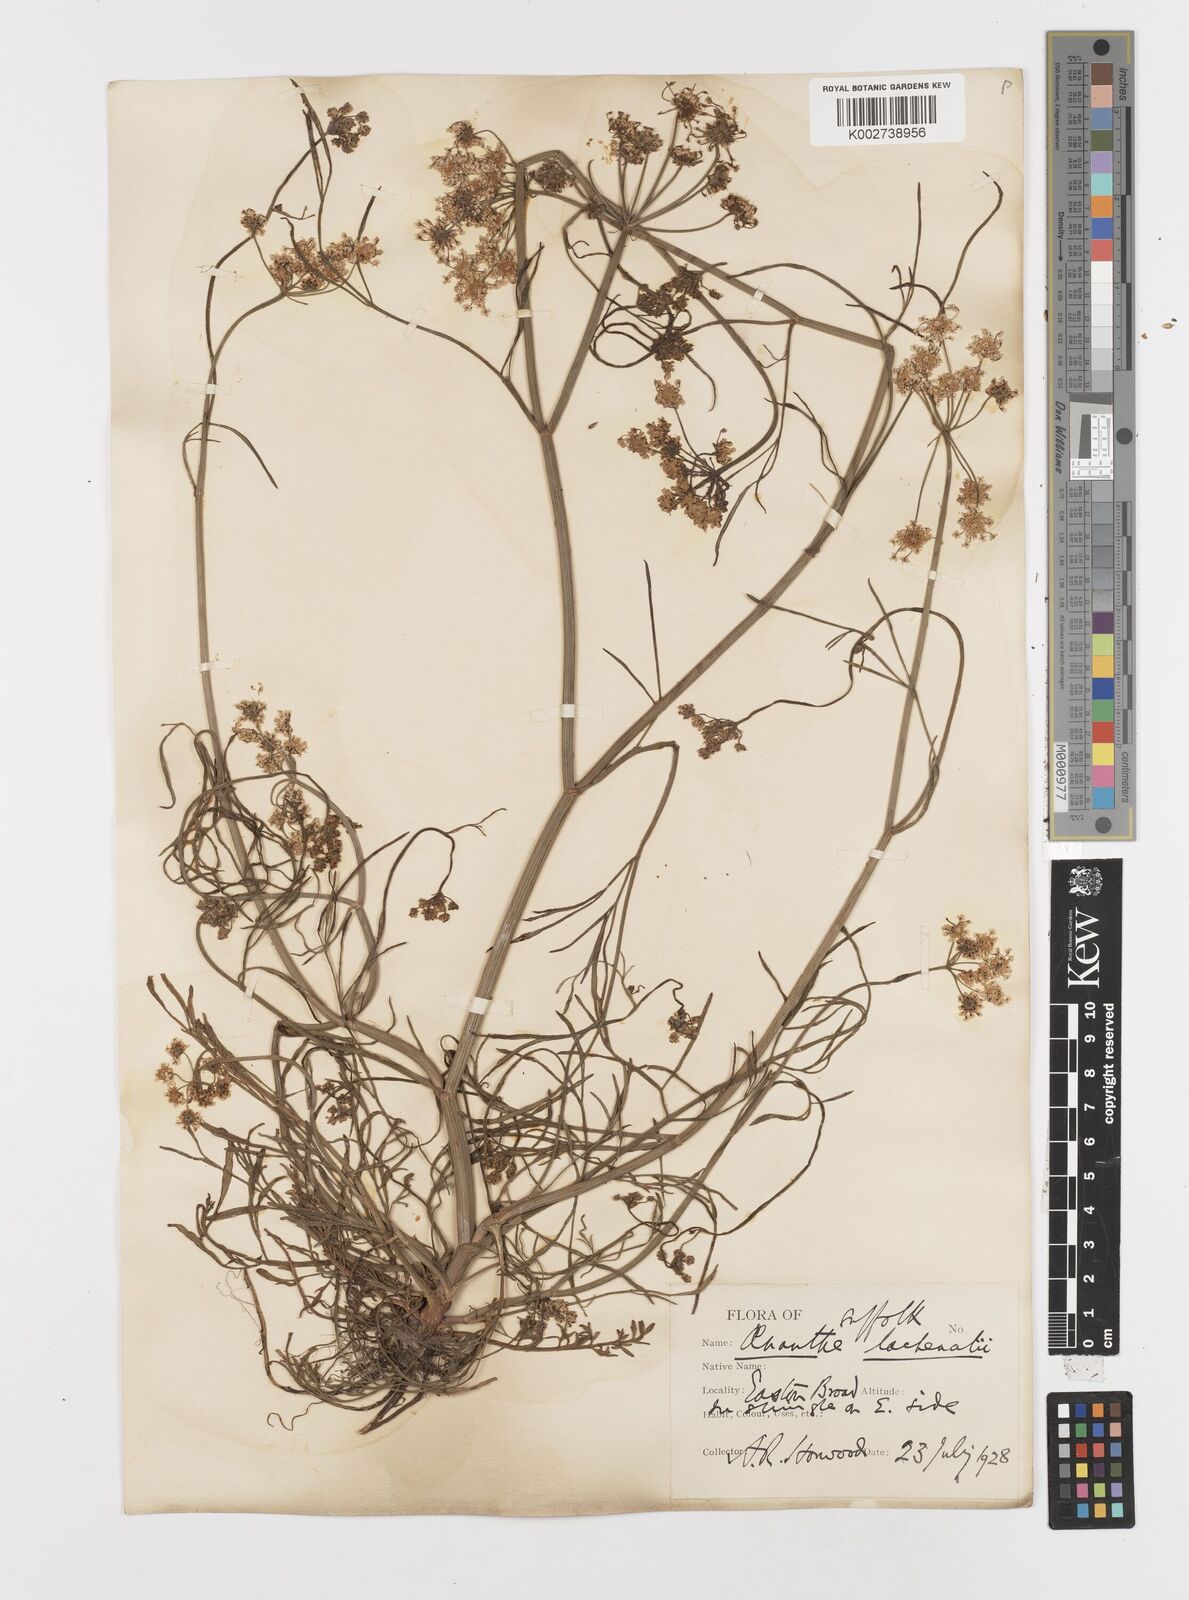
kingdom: Plantae
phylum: Tracheophyta
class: Magnoliopsida
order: Apiales
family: Apiaceae
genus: Oenanthe
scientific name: Oenanthe lachenalii
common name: Parsley water-dropwort
